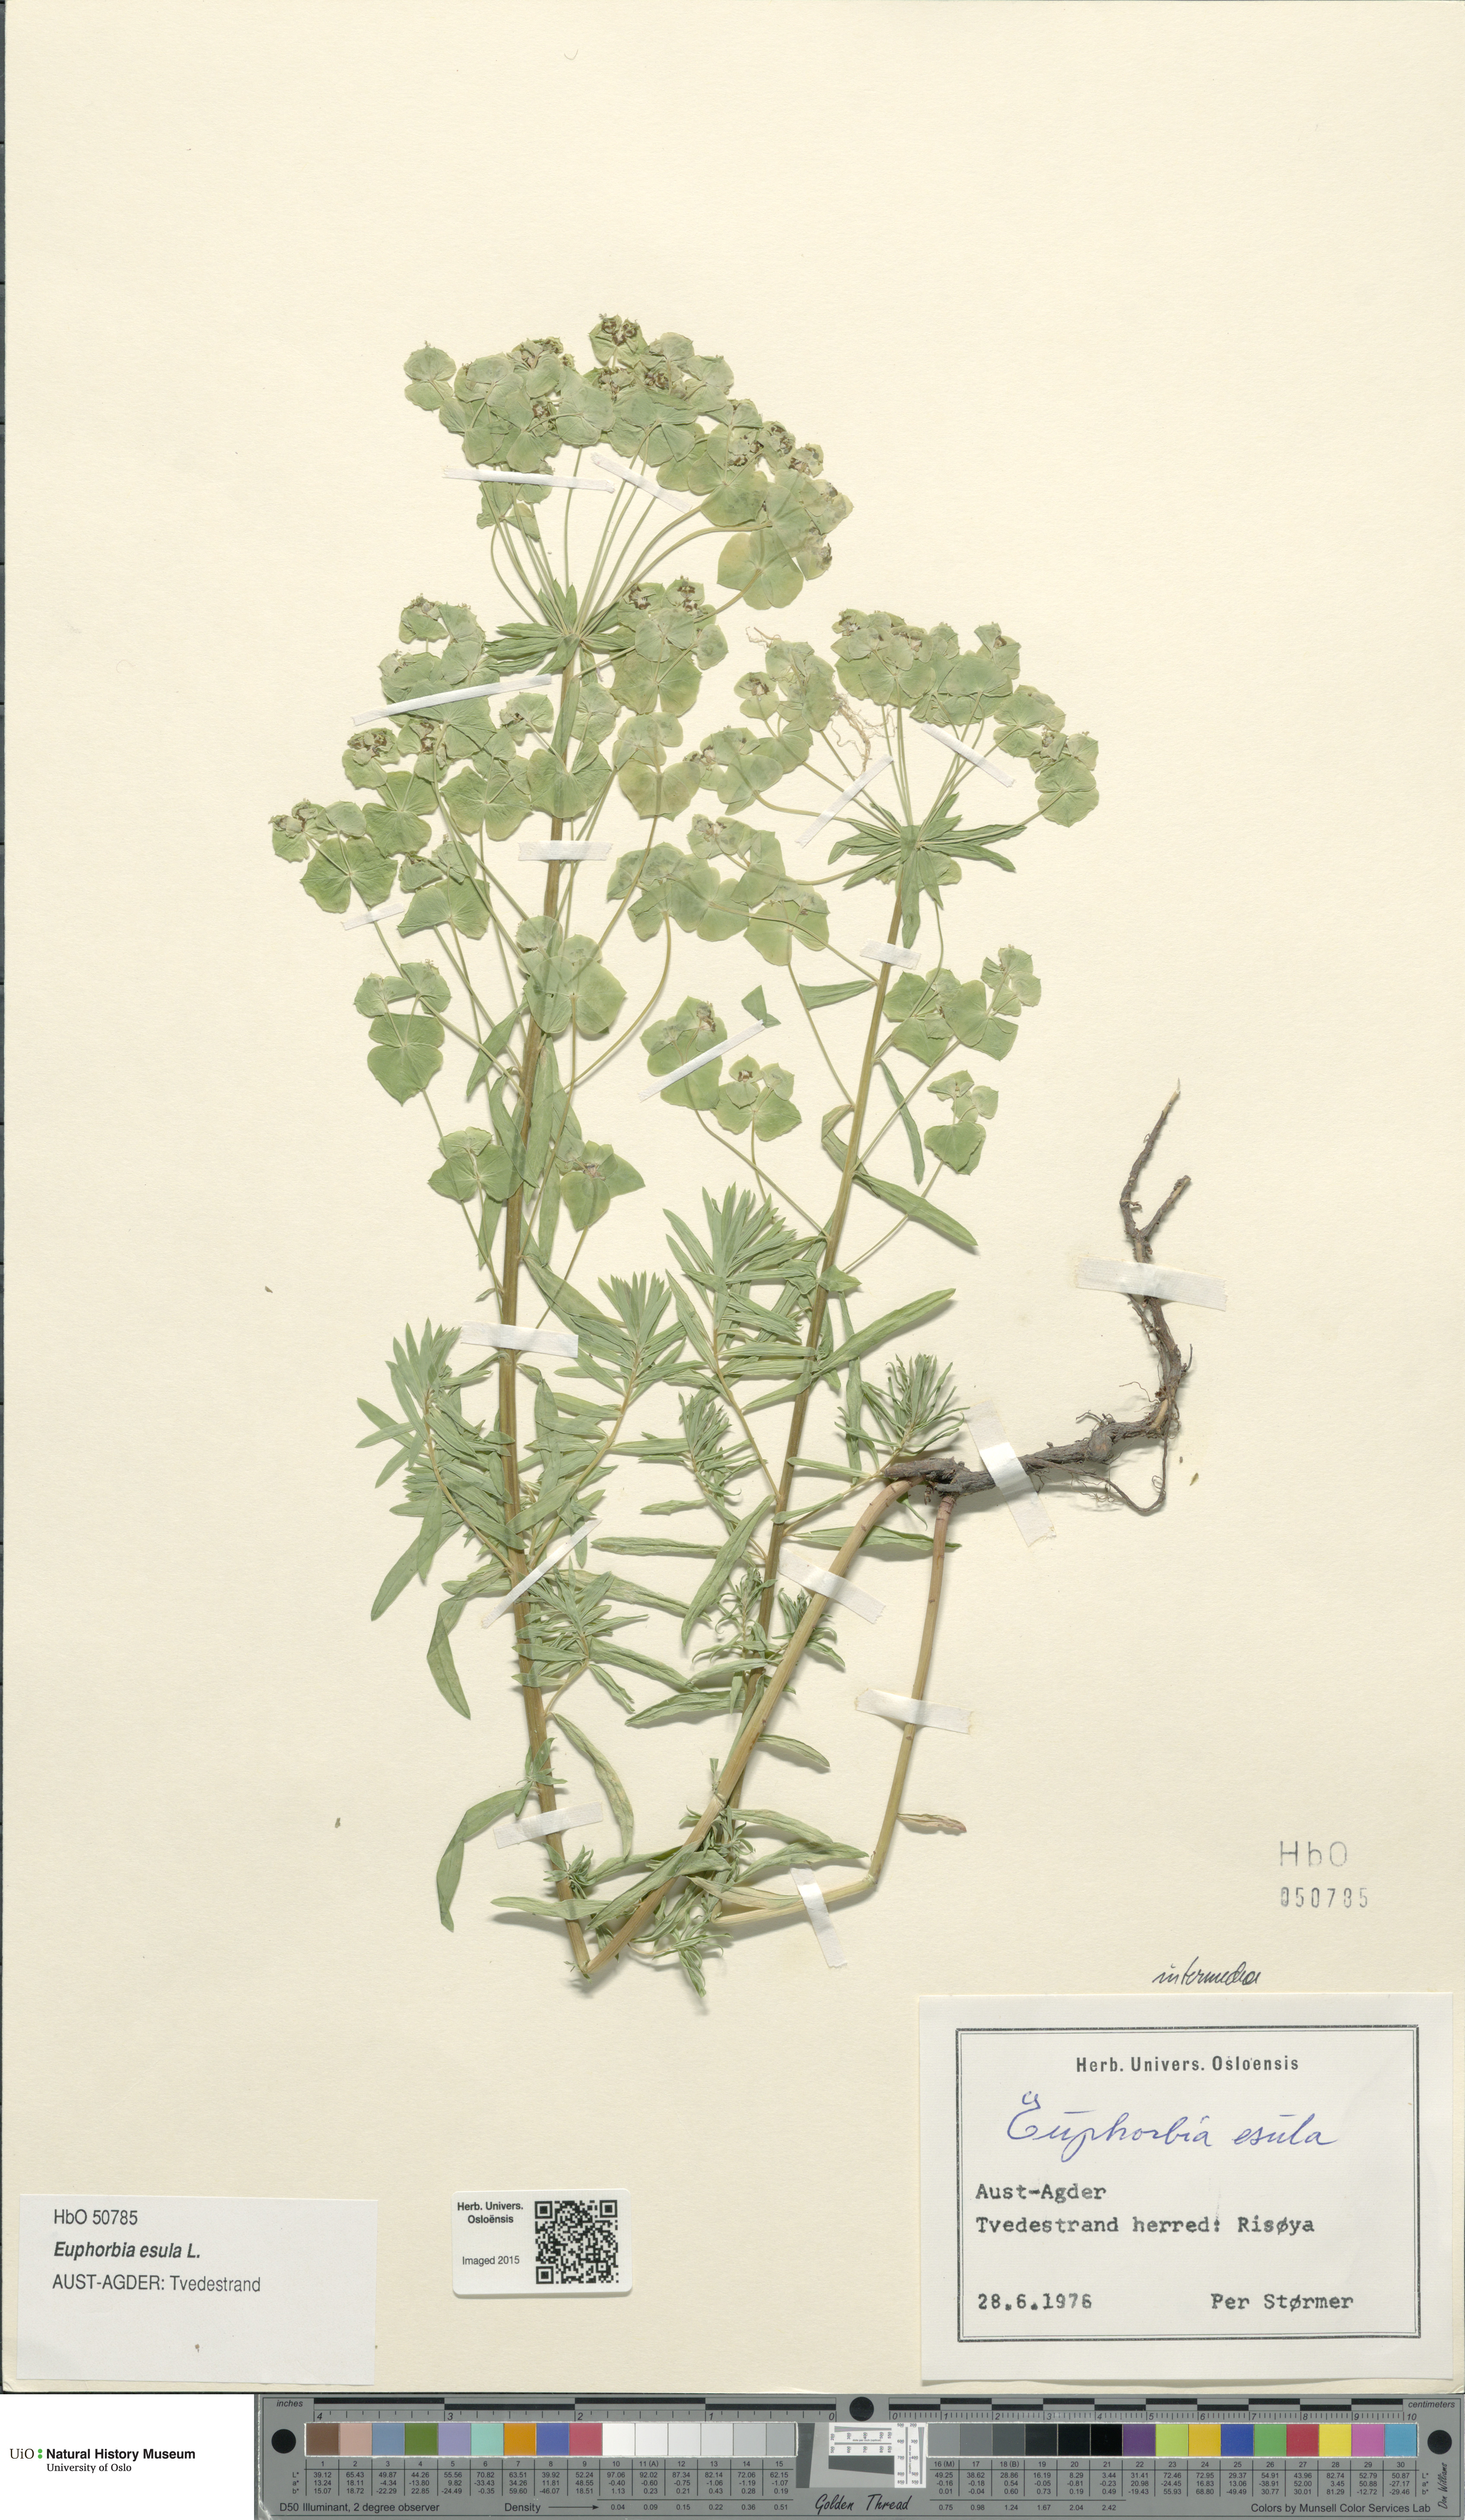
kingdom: Plantae
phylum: Tracheophyta
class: Magnoliopsida
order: Malpighiales
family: Euphorbiaceae
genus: Euphorbia
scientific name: Euphorbia esula
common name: Leafy spurge
